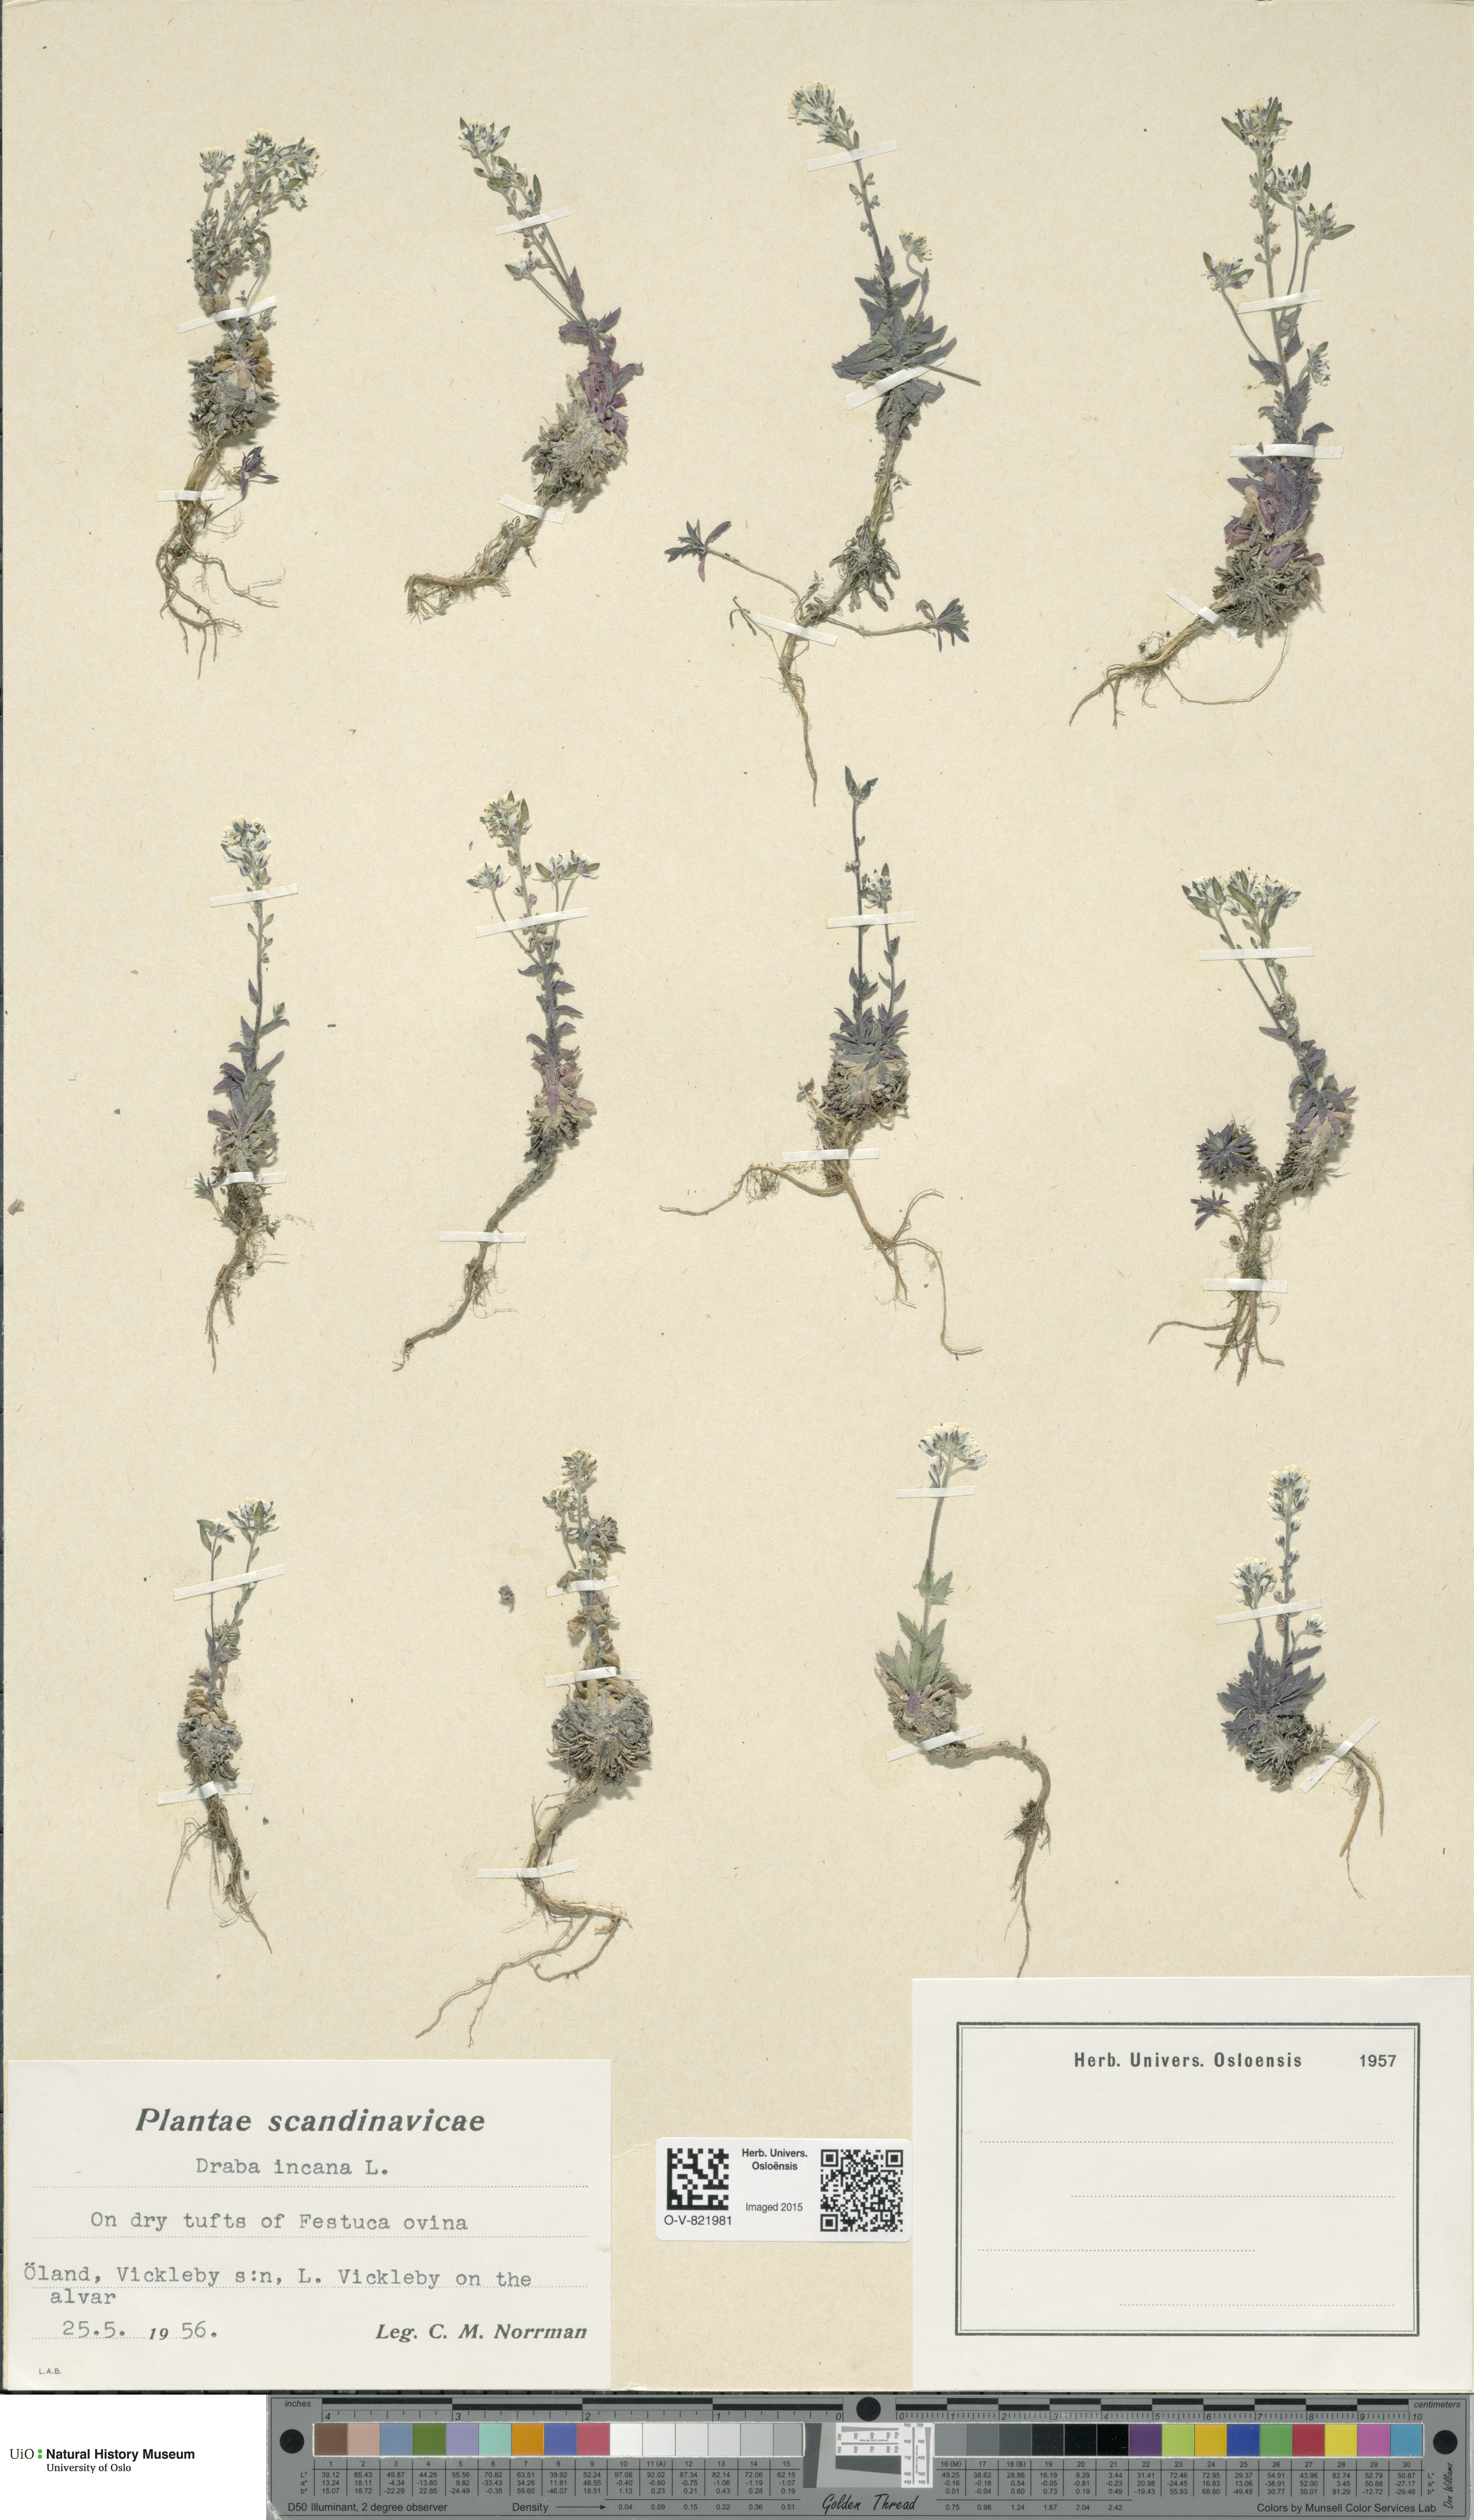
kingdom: Plantae
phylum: Tracheophyta
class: Magnoliopsida
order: Brassicales
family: Brassicaceae
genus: Draba
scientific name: Draba incana
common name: Hoary whitlow-grass
